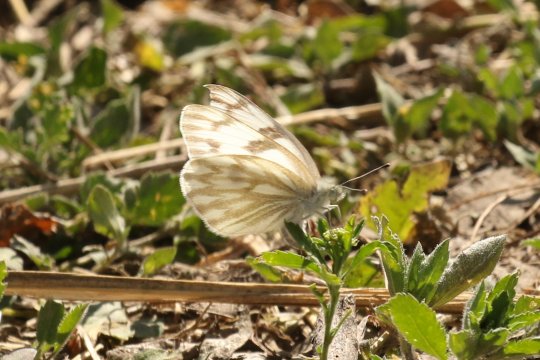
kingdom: Animalia
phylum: Arthropoda
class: Insecta
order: Lepidoptera
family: Pieridae
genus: Pontia
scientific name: Pontia protodice
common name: Checkered White
